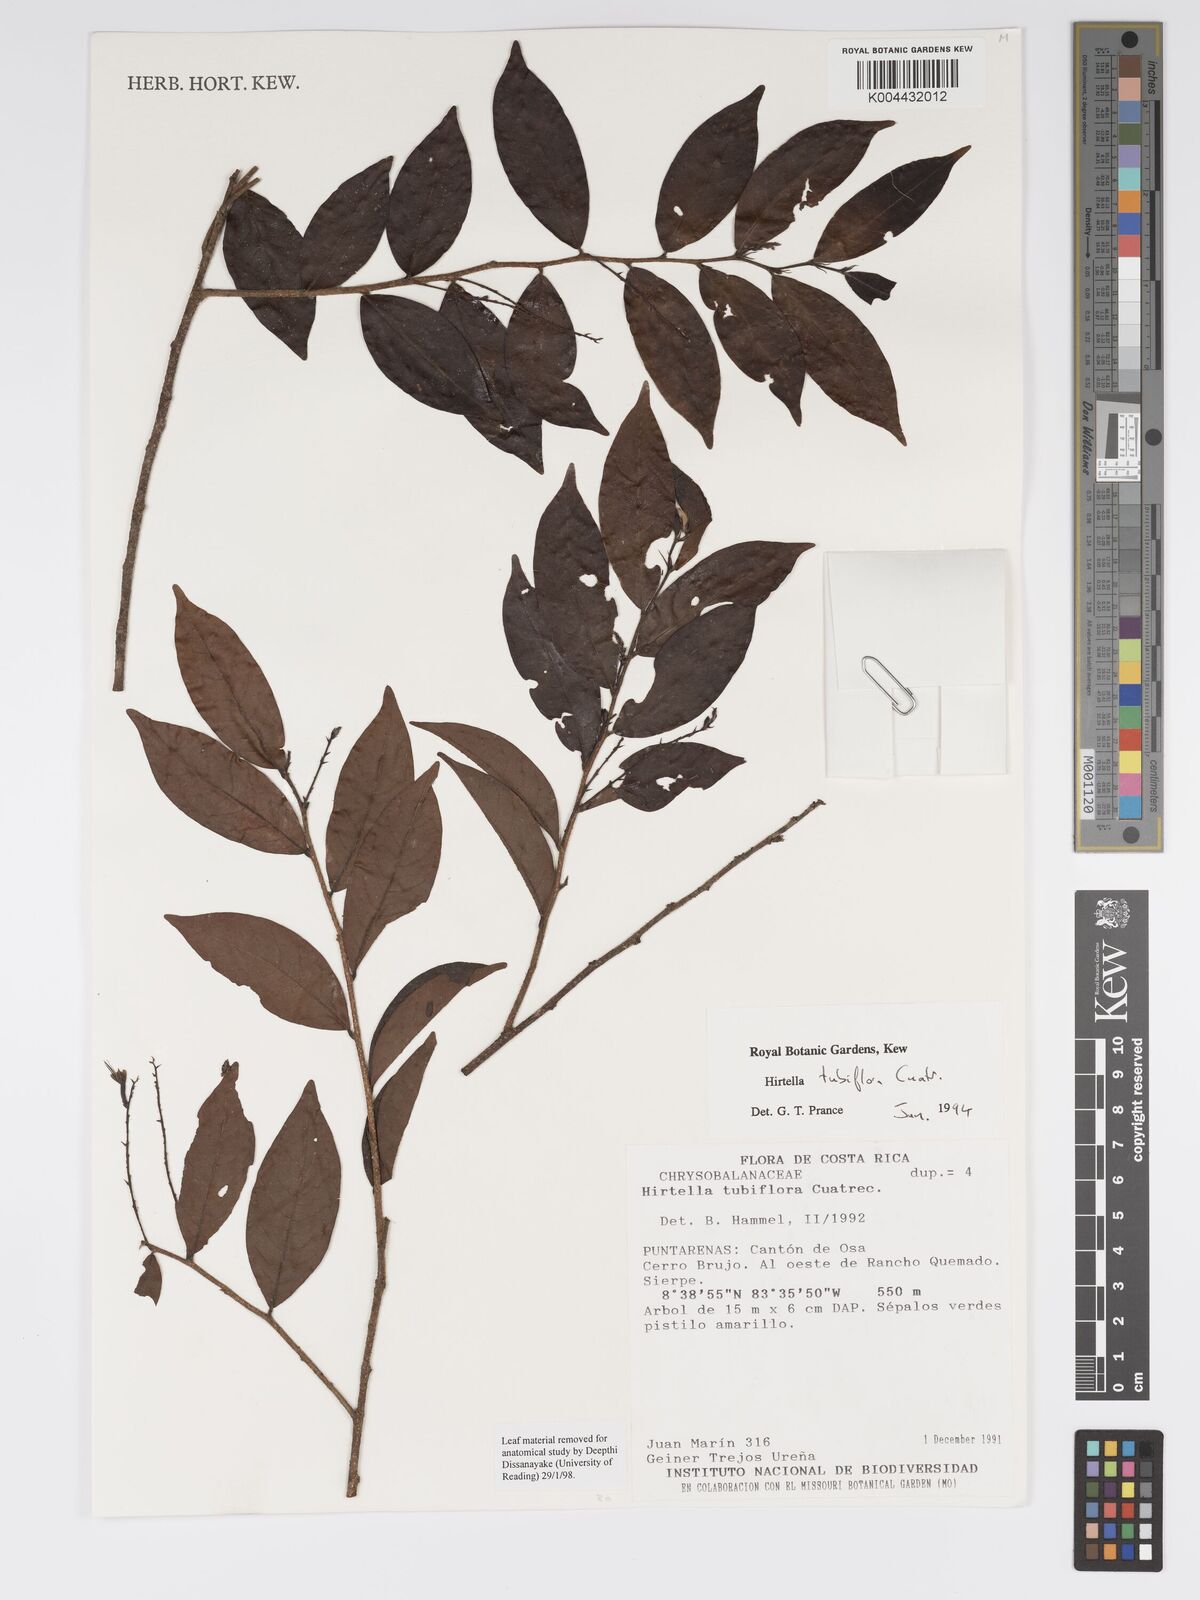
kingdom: Plantae
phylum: Tracheophyta
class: Magnoliopsida
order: Malpighiales
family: Chrysobalanaceae
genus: Hirtella
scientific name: Hirtella tubiflora
